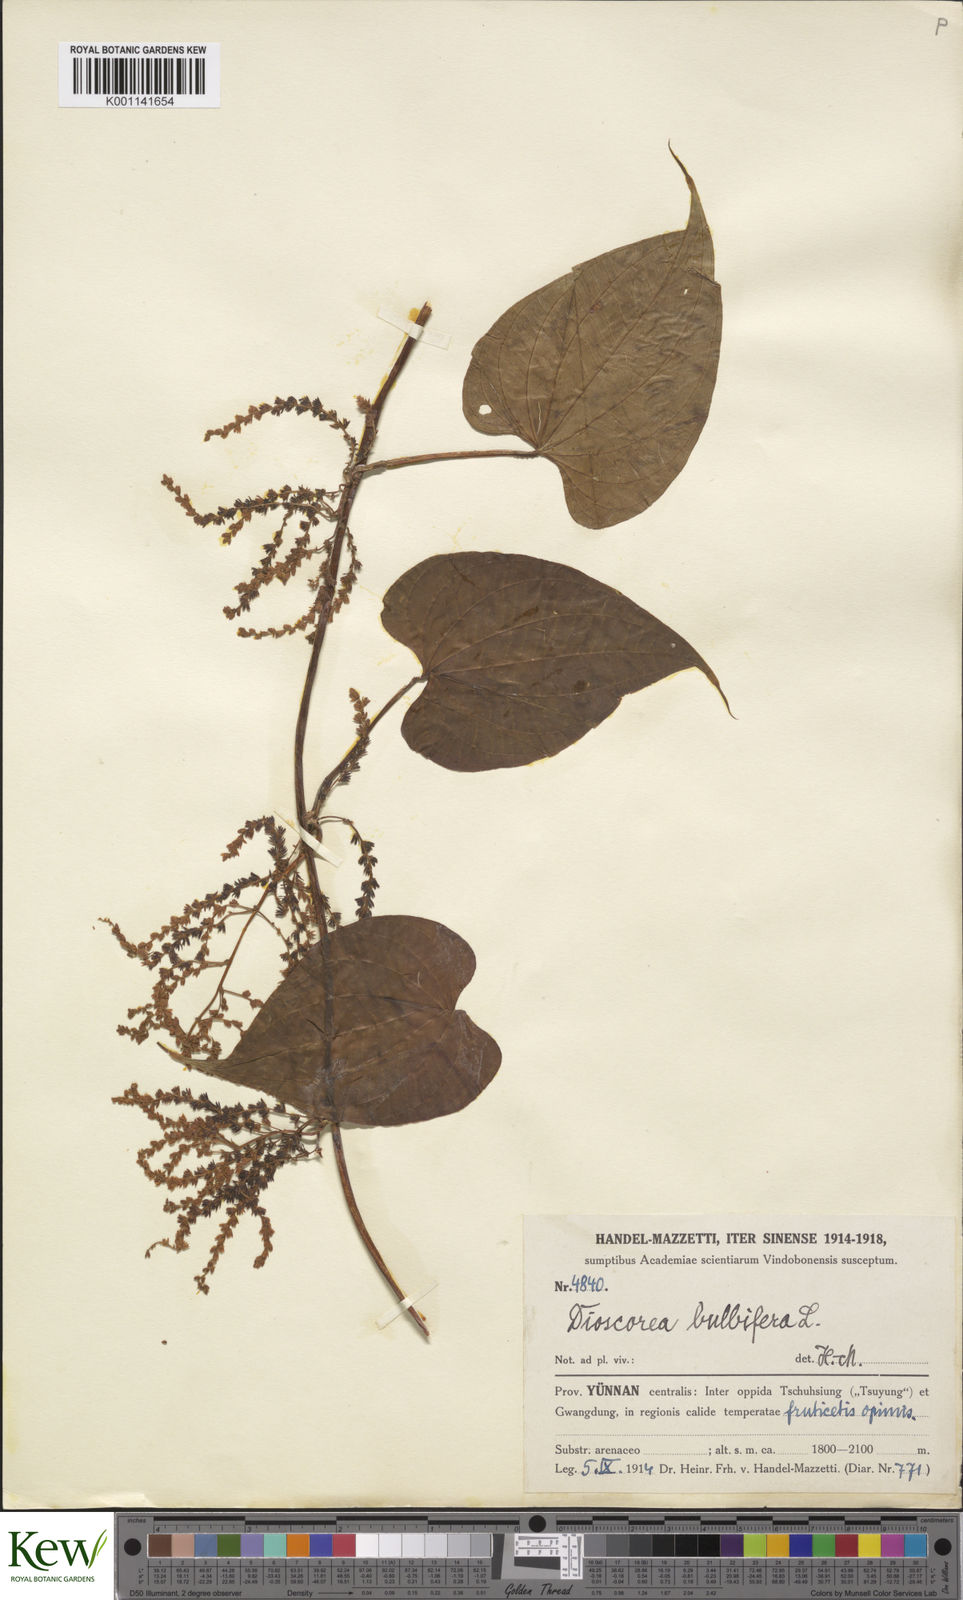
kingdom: Plantae
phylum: Tracheophyta
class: Liliopsida
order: Dioscoreales
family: Dioscoreaceae
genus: Dioscorea
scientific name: Dioscorea bulbifera
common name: Air yam
